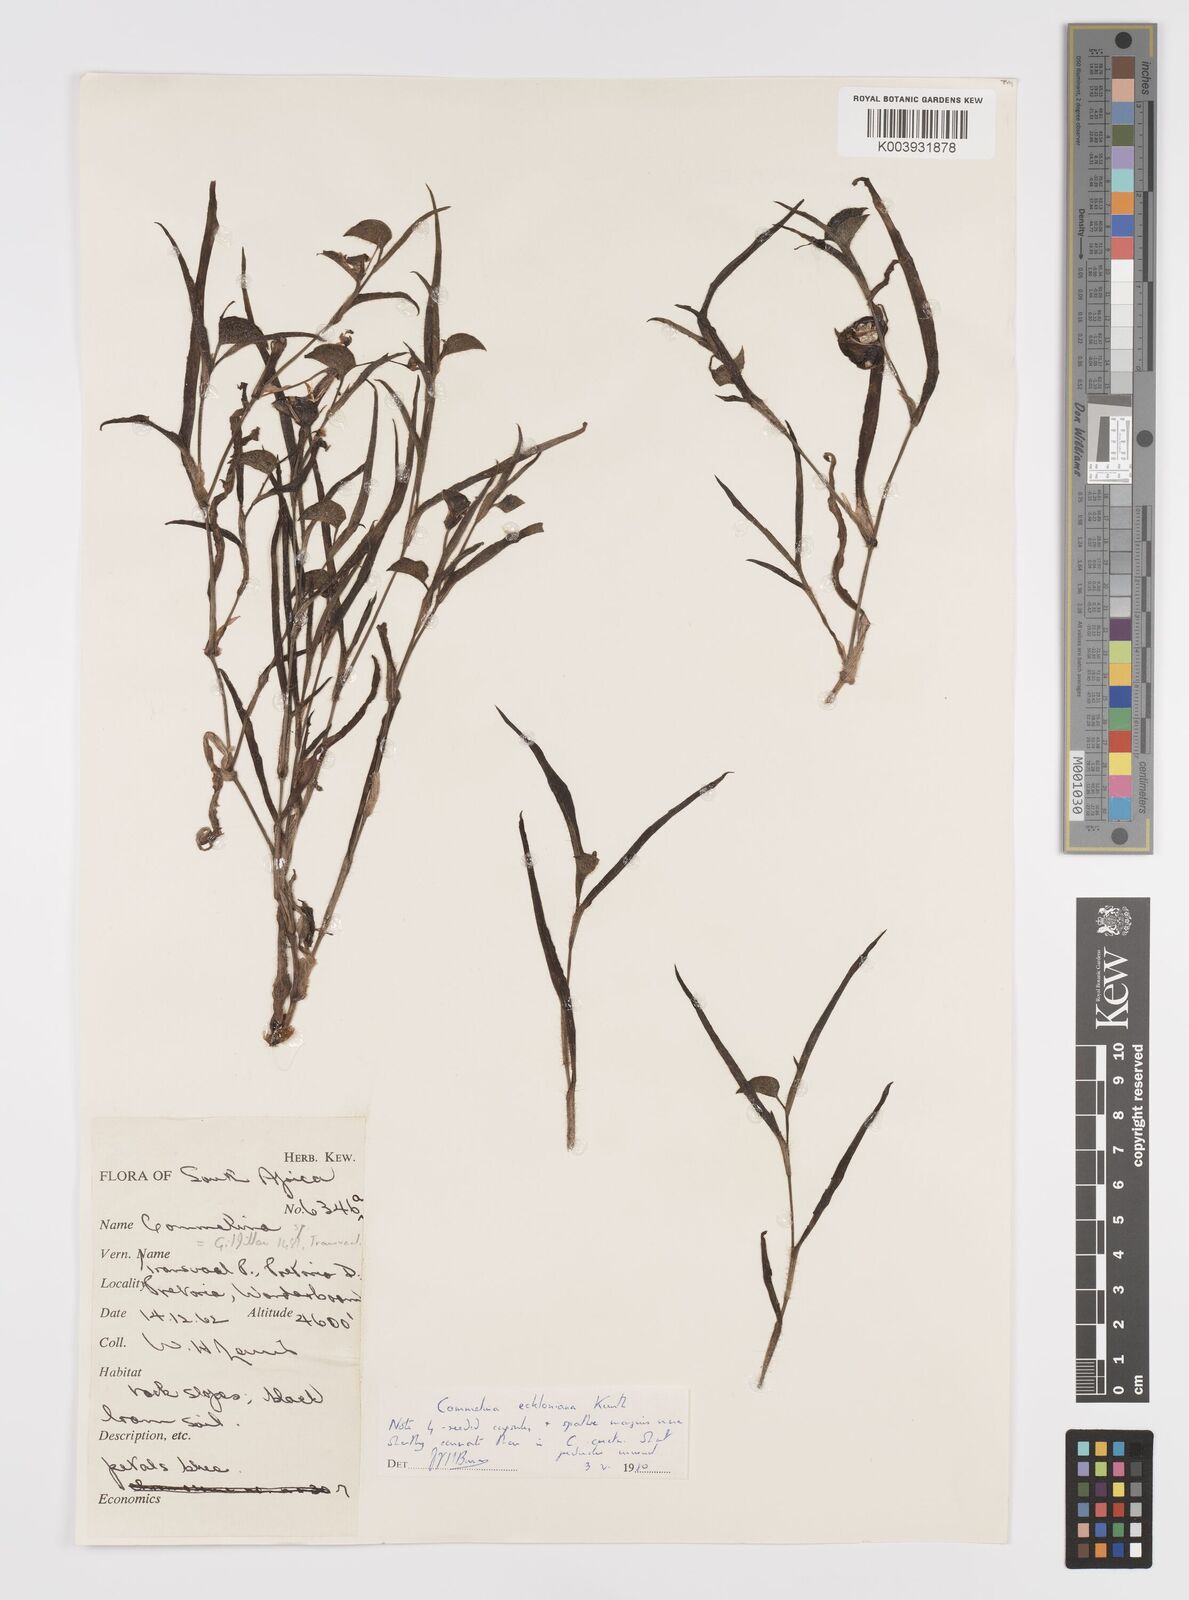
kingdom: Plantae
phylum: Tracheophyta
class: Liliopsida
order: Commelinales
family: Commelinaceae
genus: Commelina
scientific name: Commelina eckloniana
